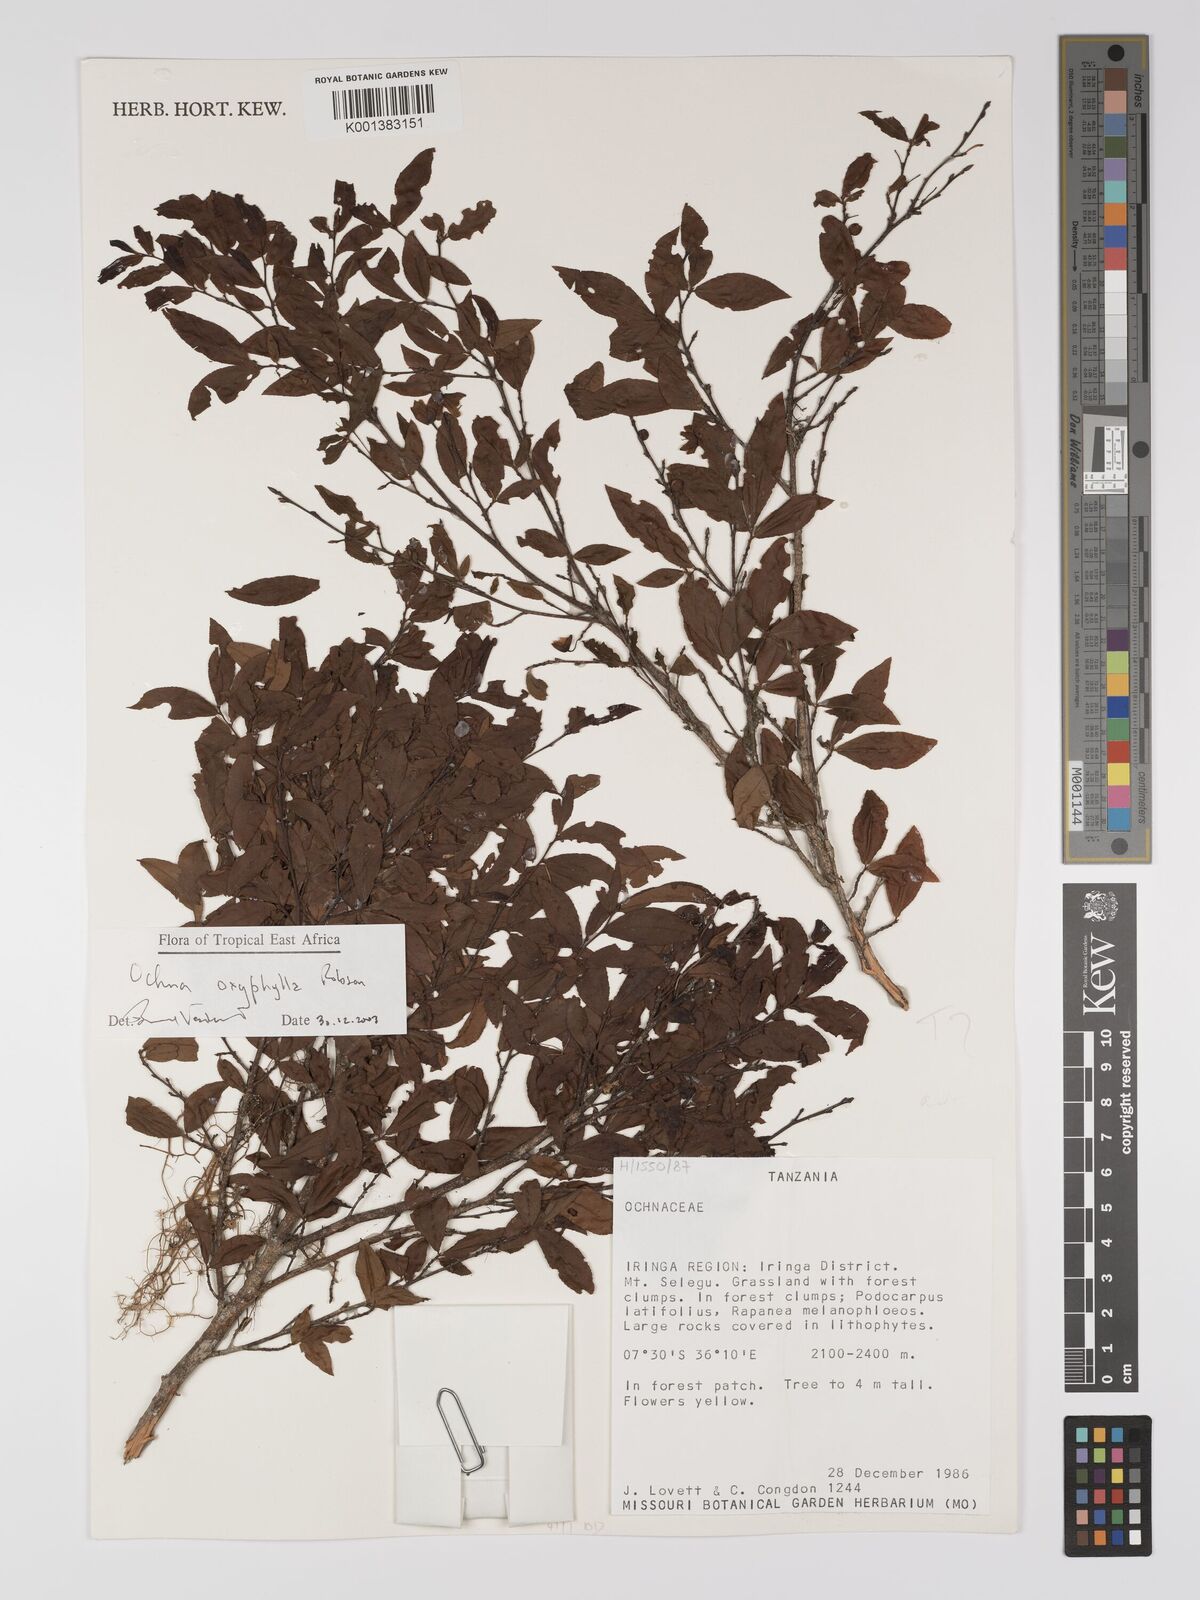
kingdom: Plantae
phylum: Tracheophyta
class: Magnoliopsida
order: Malpighiales
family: Ochnaceae
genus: Ochna
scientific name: Ochna oxyphylla
